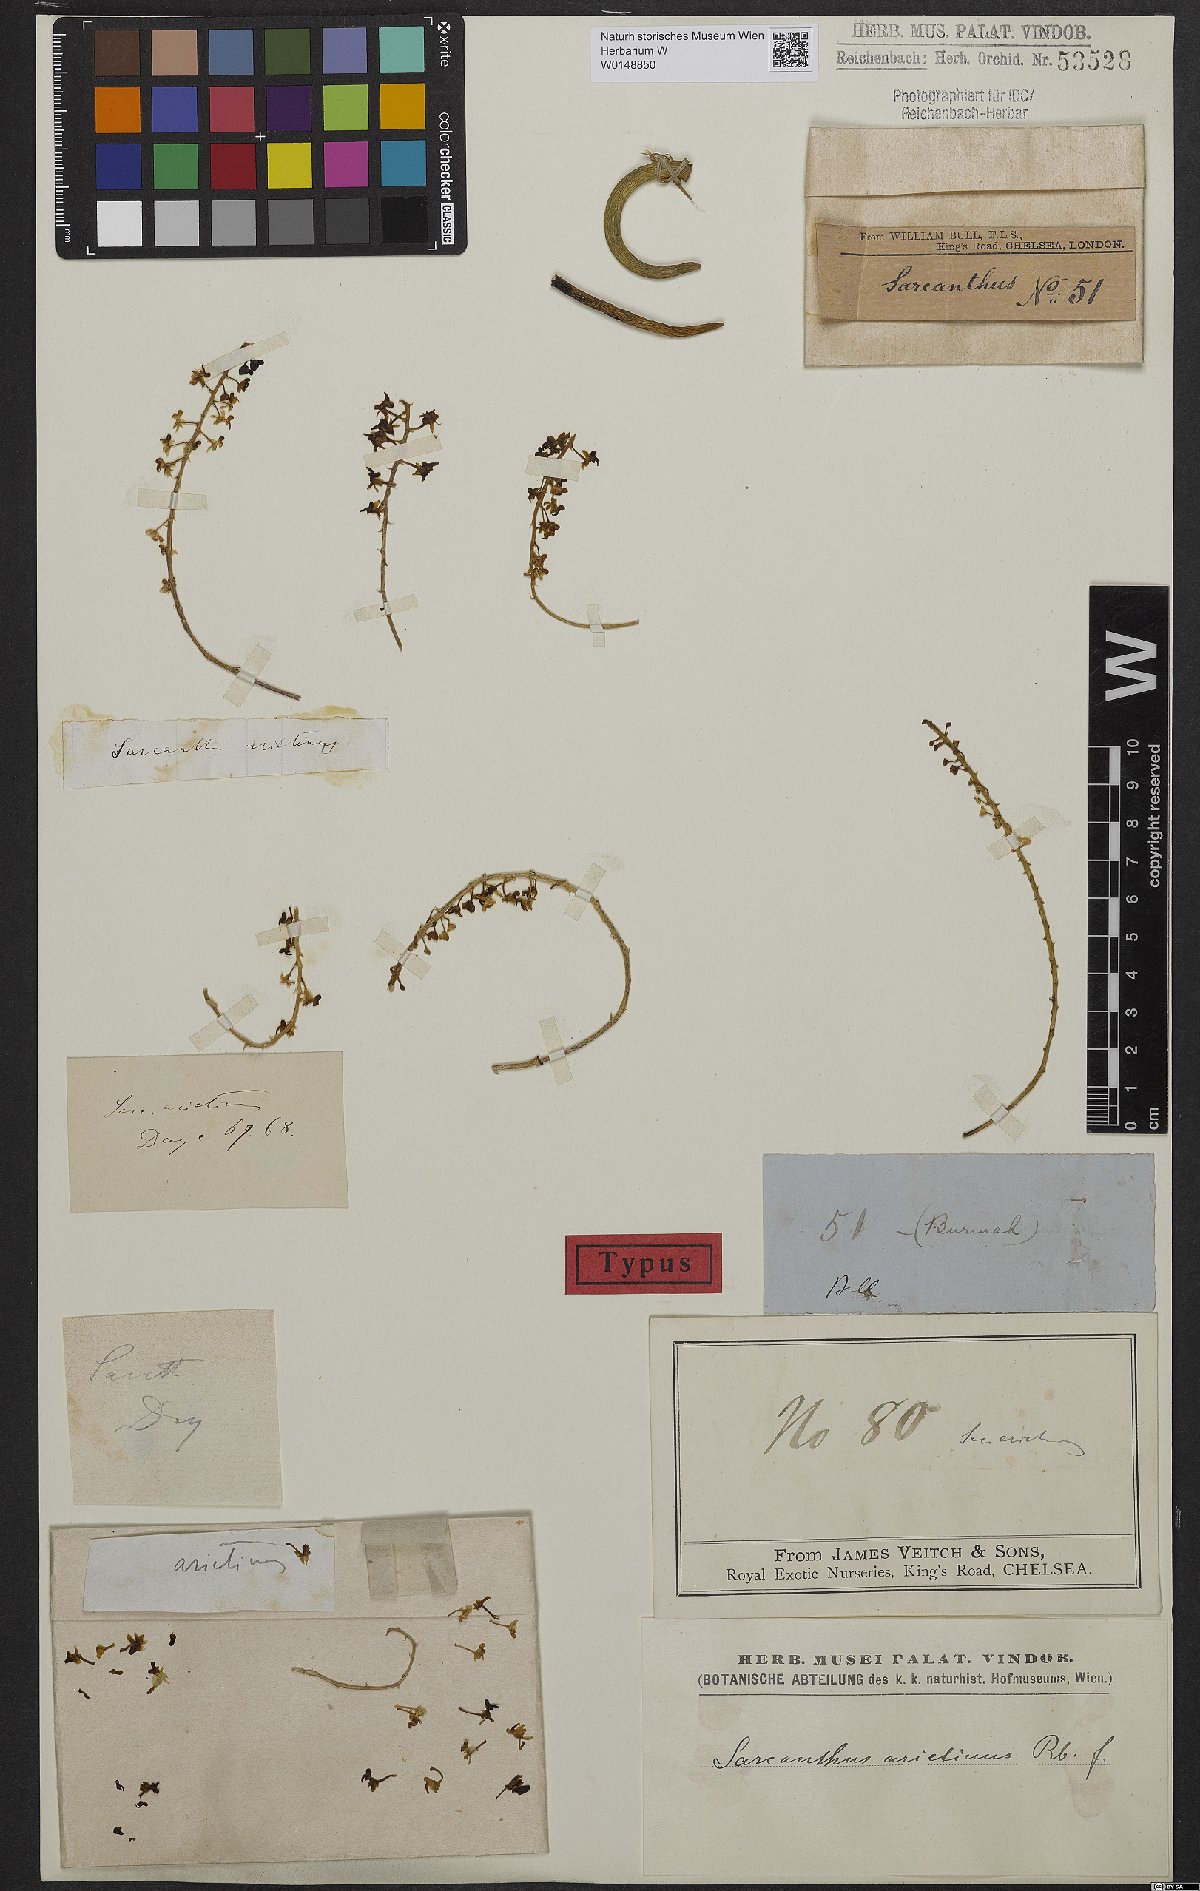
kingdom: Plantae
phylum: Tracheophyta
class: Liliopsida
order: Asparagales
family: Orchidaceae
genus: Cleisostoma
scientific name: Cleisostoma arietinum
